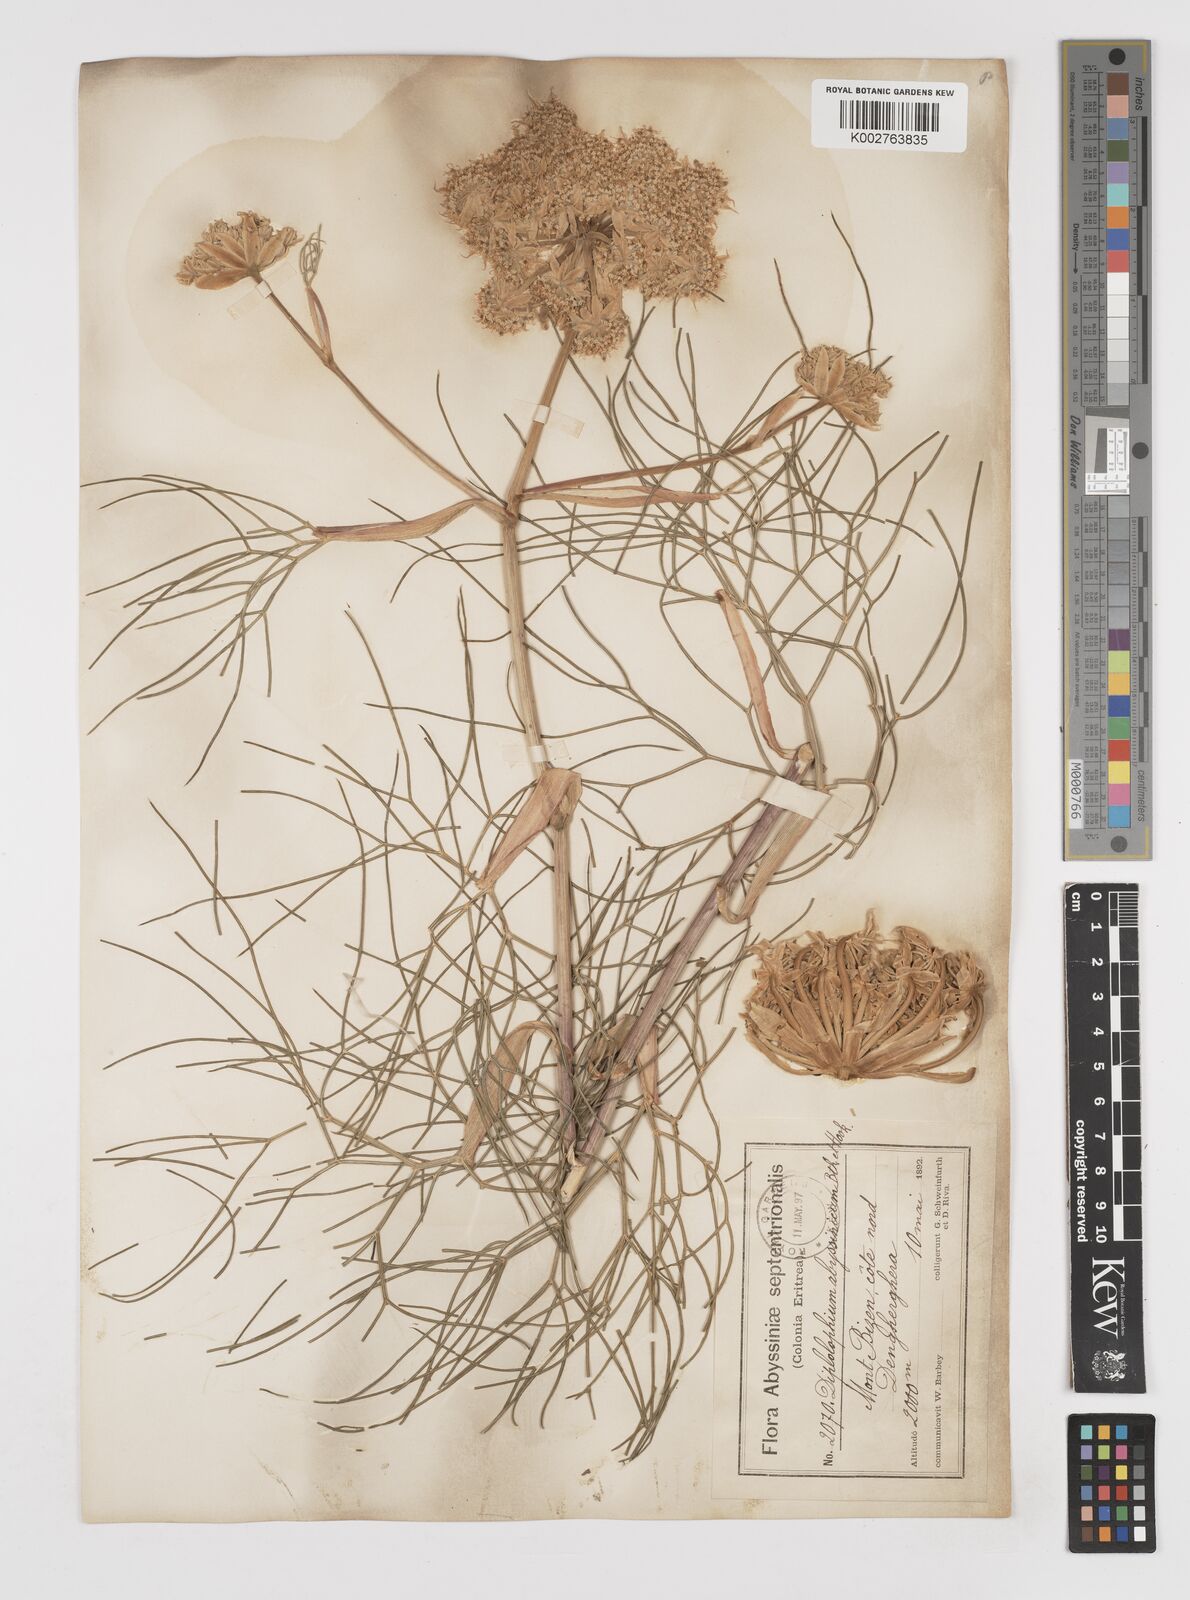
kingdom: Plantae
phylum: Tracheophyta
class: Magnoliopsida
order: Apiales
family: Apiaceae
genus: Diplolophium
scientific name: Diplolophium africanum
